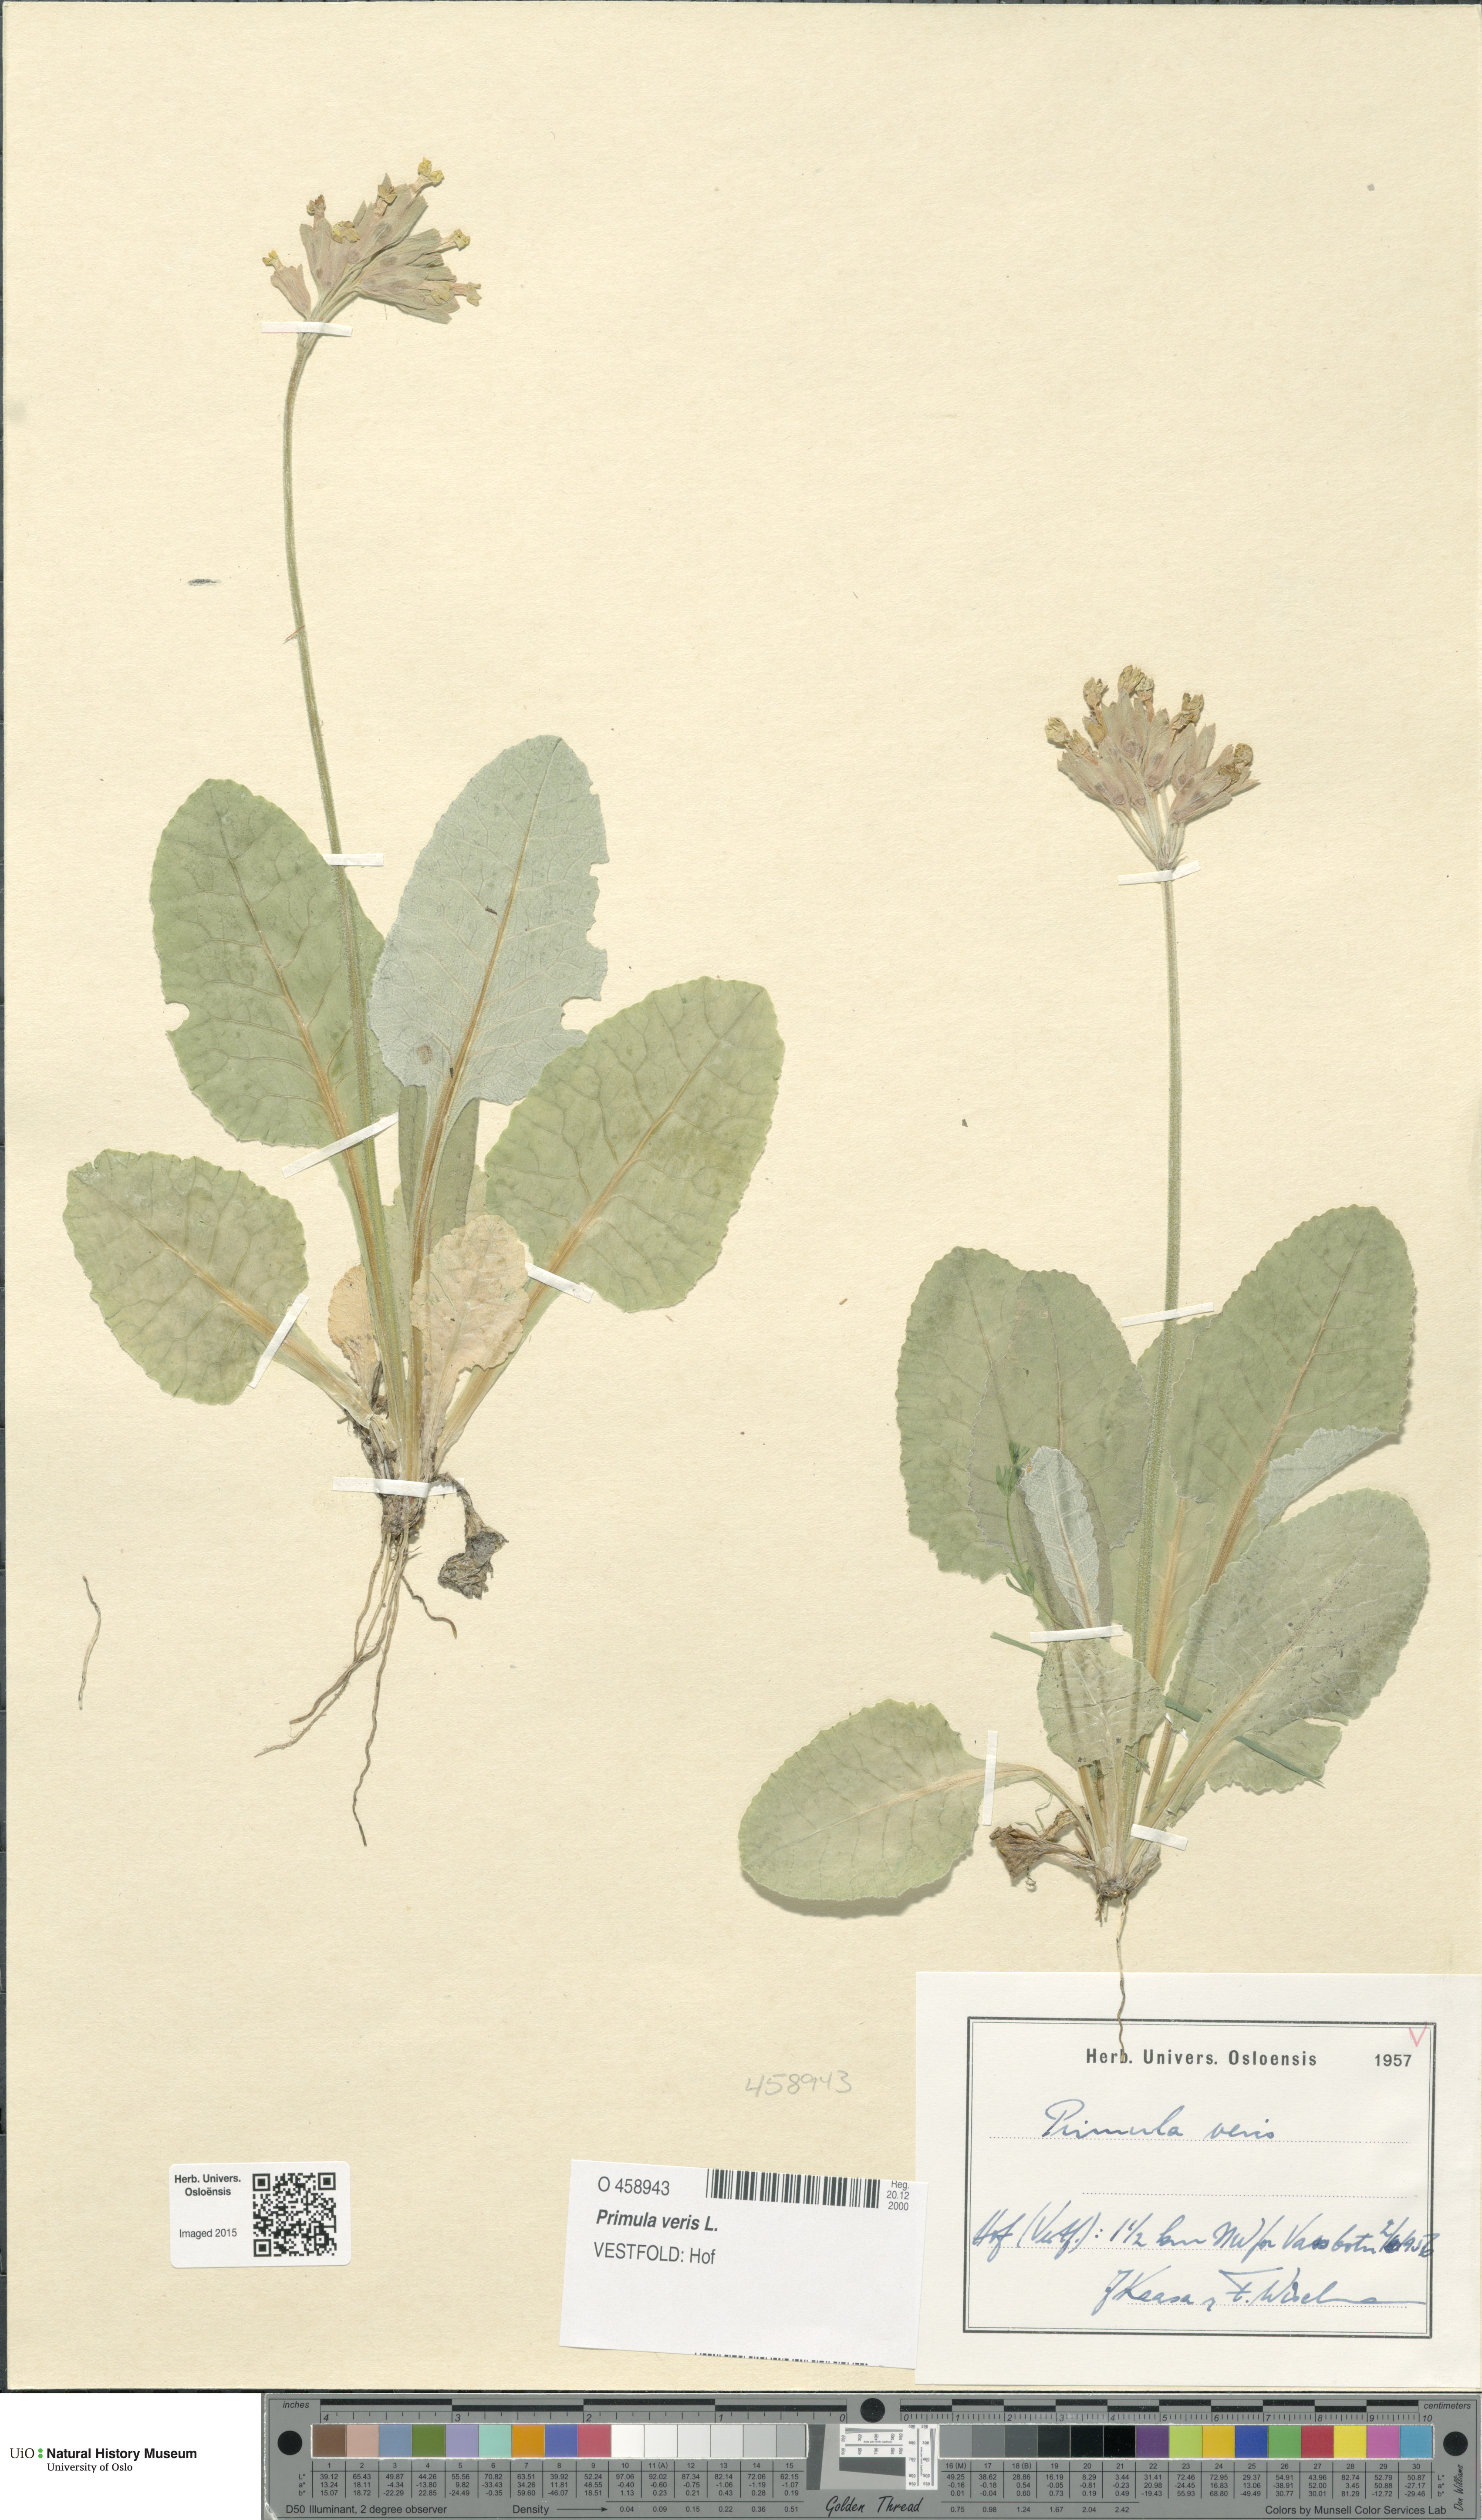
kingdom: Plantae
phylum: Tracheophyta
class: Magnoliopsida
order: Ericales
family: Primulaceae
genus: Primula
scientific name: Primula veris
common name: Cowslip
